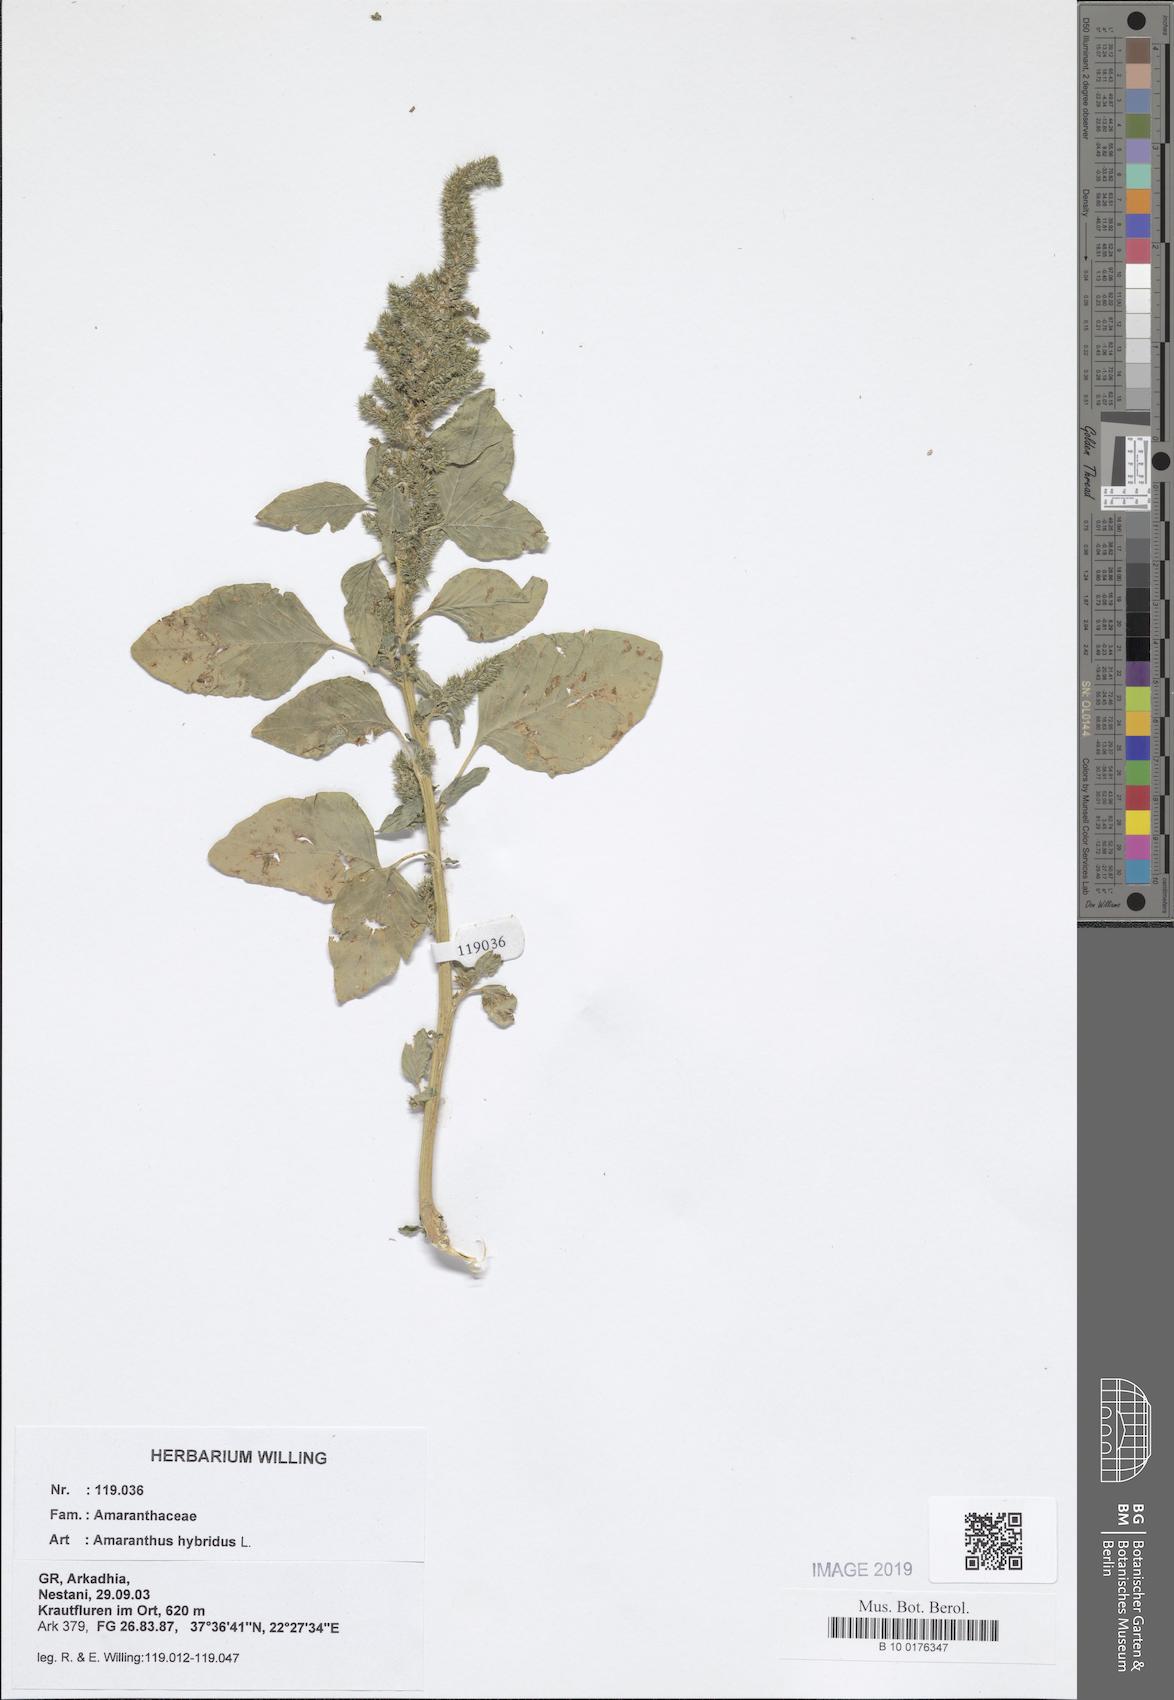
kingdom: Plantae
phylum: Tracheophyta
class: Magnoliopsida
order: Caryophyllales
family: Amaranthaceae
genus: Amaranthus
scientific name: Amaranthus hybridus
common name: Green amaranth
